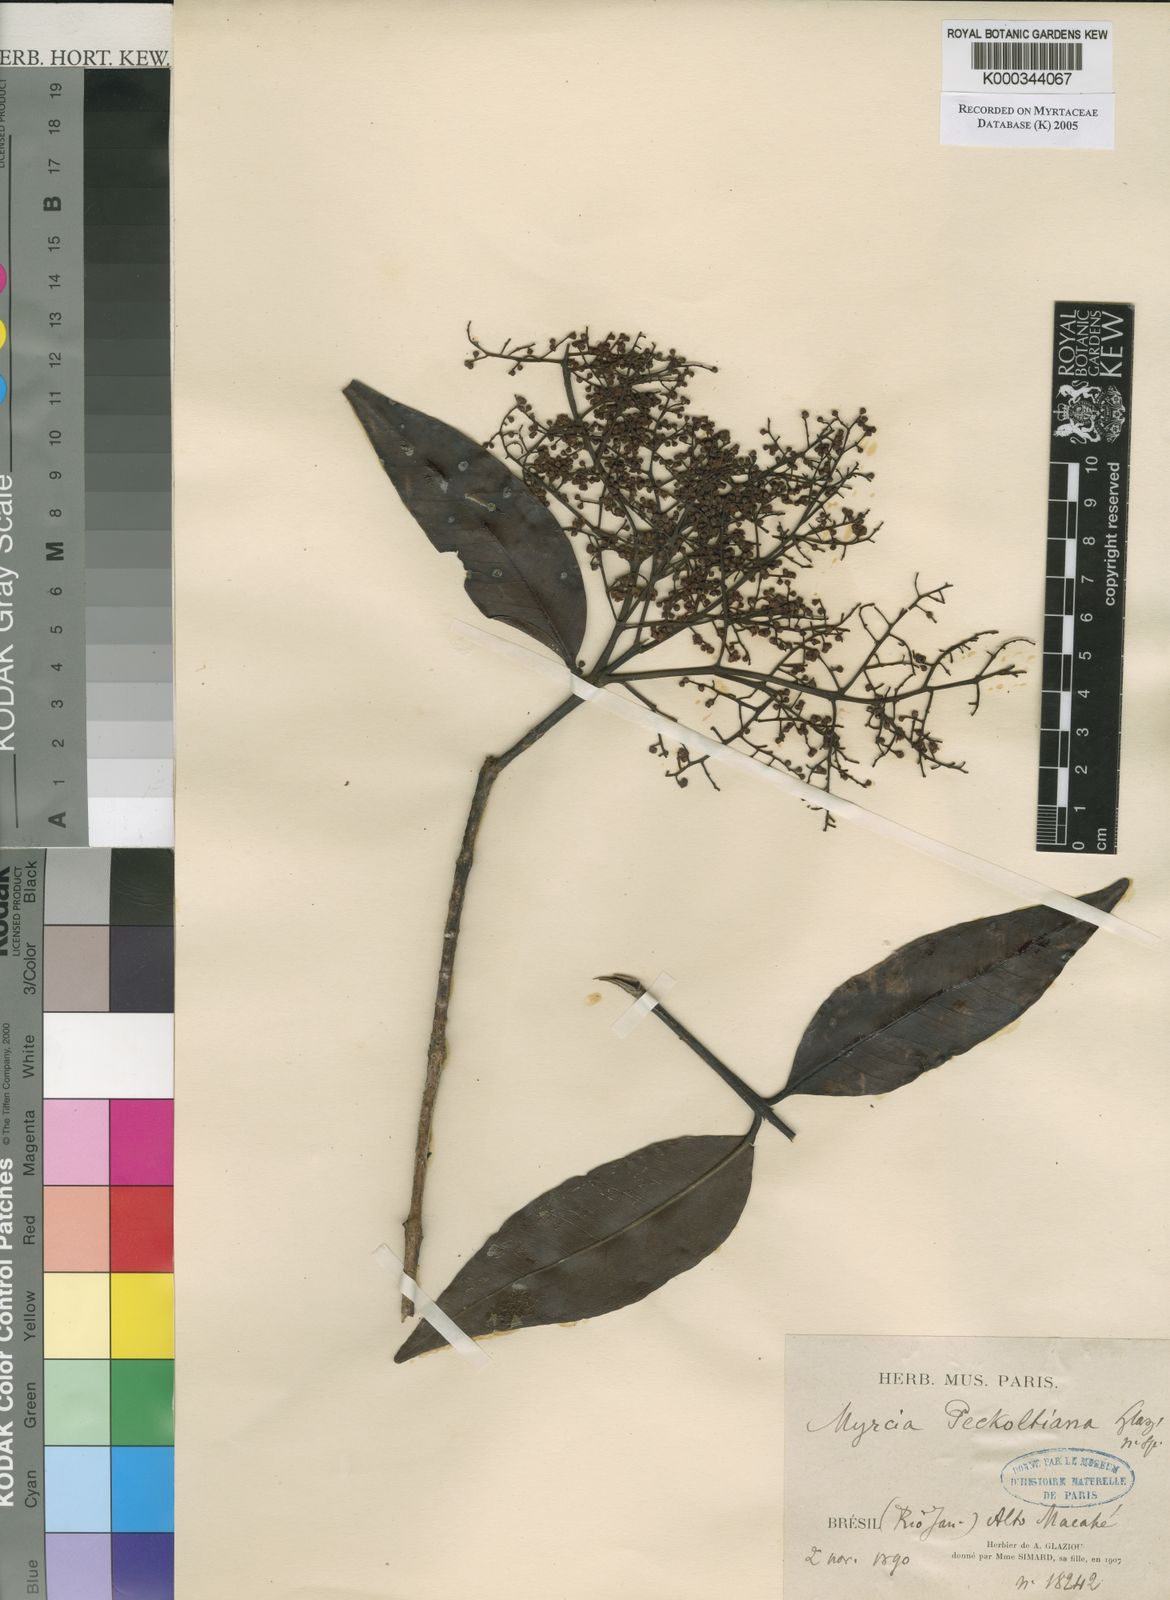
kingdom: Plantae
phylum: Tracheophyta
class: Magnoliopsida
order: Myrtales
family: Myrtaceae
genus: Myrcia
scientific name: Myrcia
